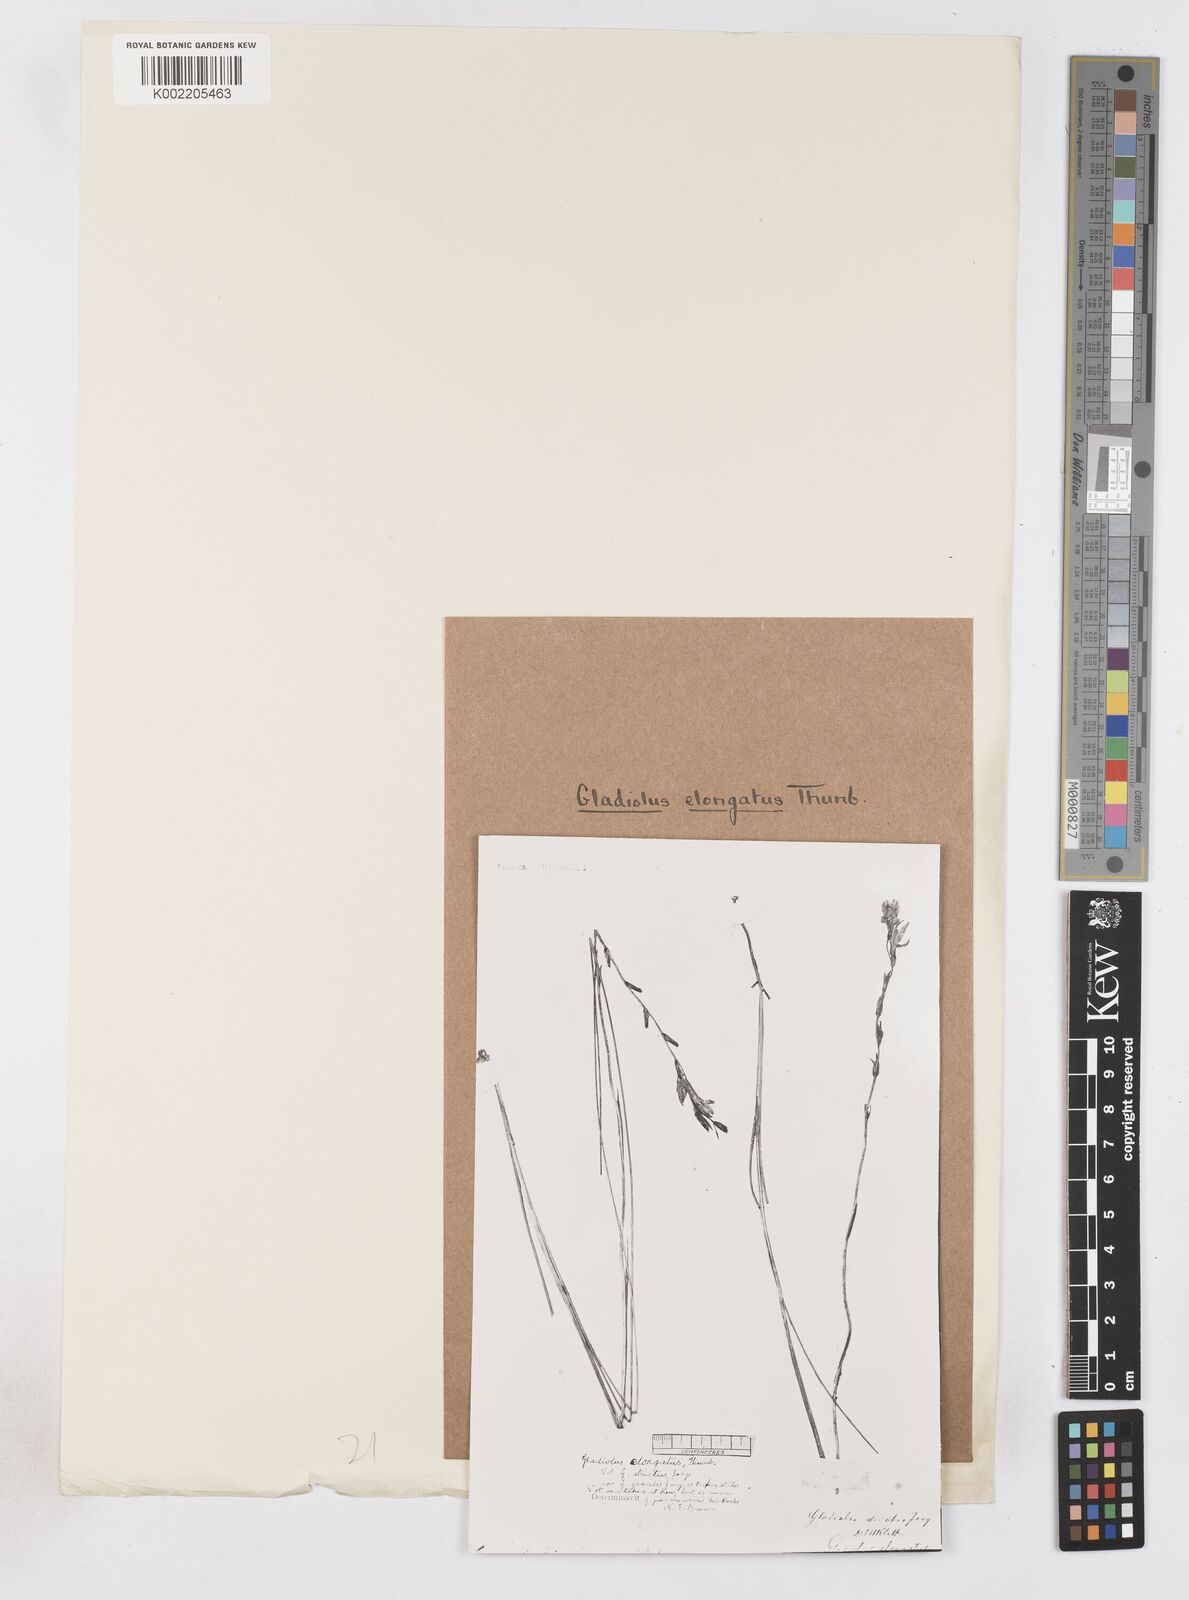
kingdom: Plantae
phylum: Tracheophyta
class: Liliopsida
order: Asparagales
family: Iridaceae
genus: Gladiolus
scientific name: Gladiolus stellatus
